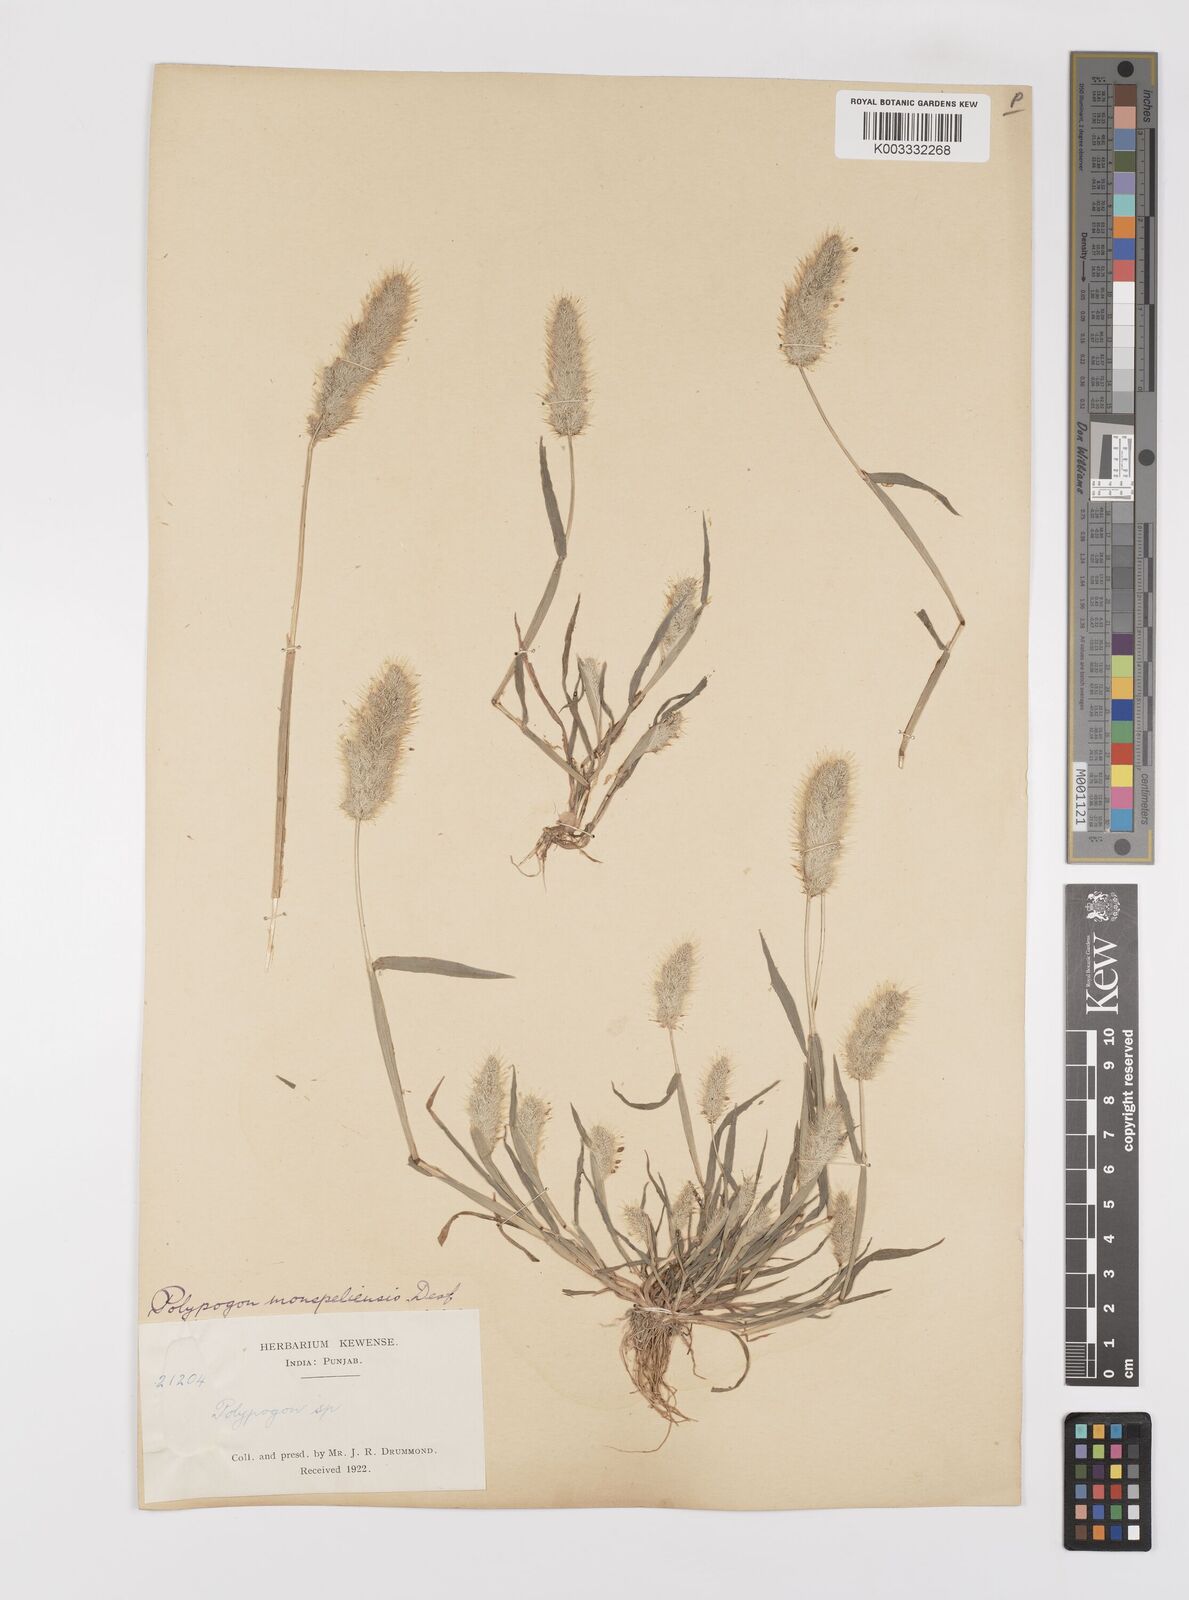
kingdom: Plantae
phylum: Tracheophyta
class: Liliopsida
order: Poales
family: Poaceae
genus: Polypogon
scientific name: Polypogon monspeliensis
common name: Annual rabbitsfoot grass
